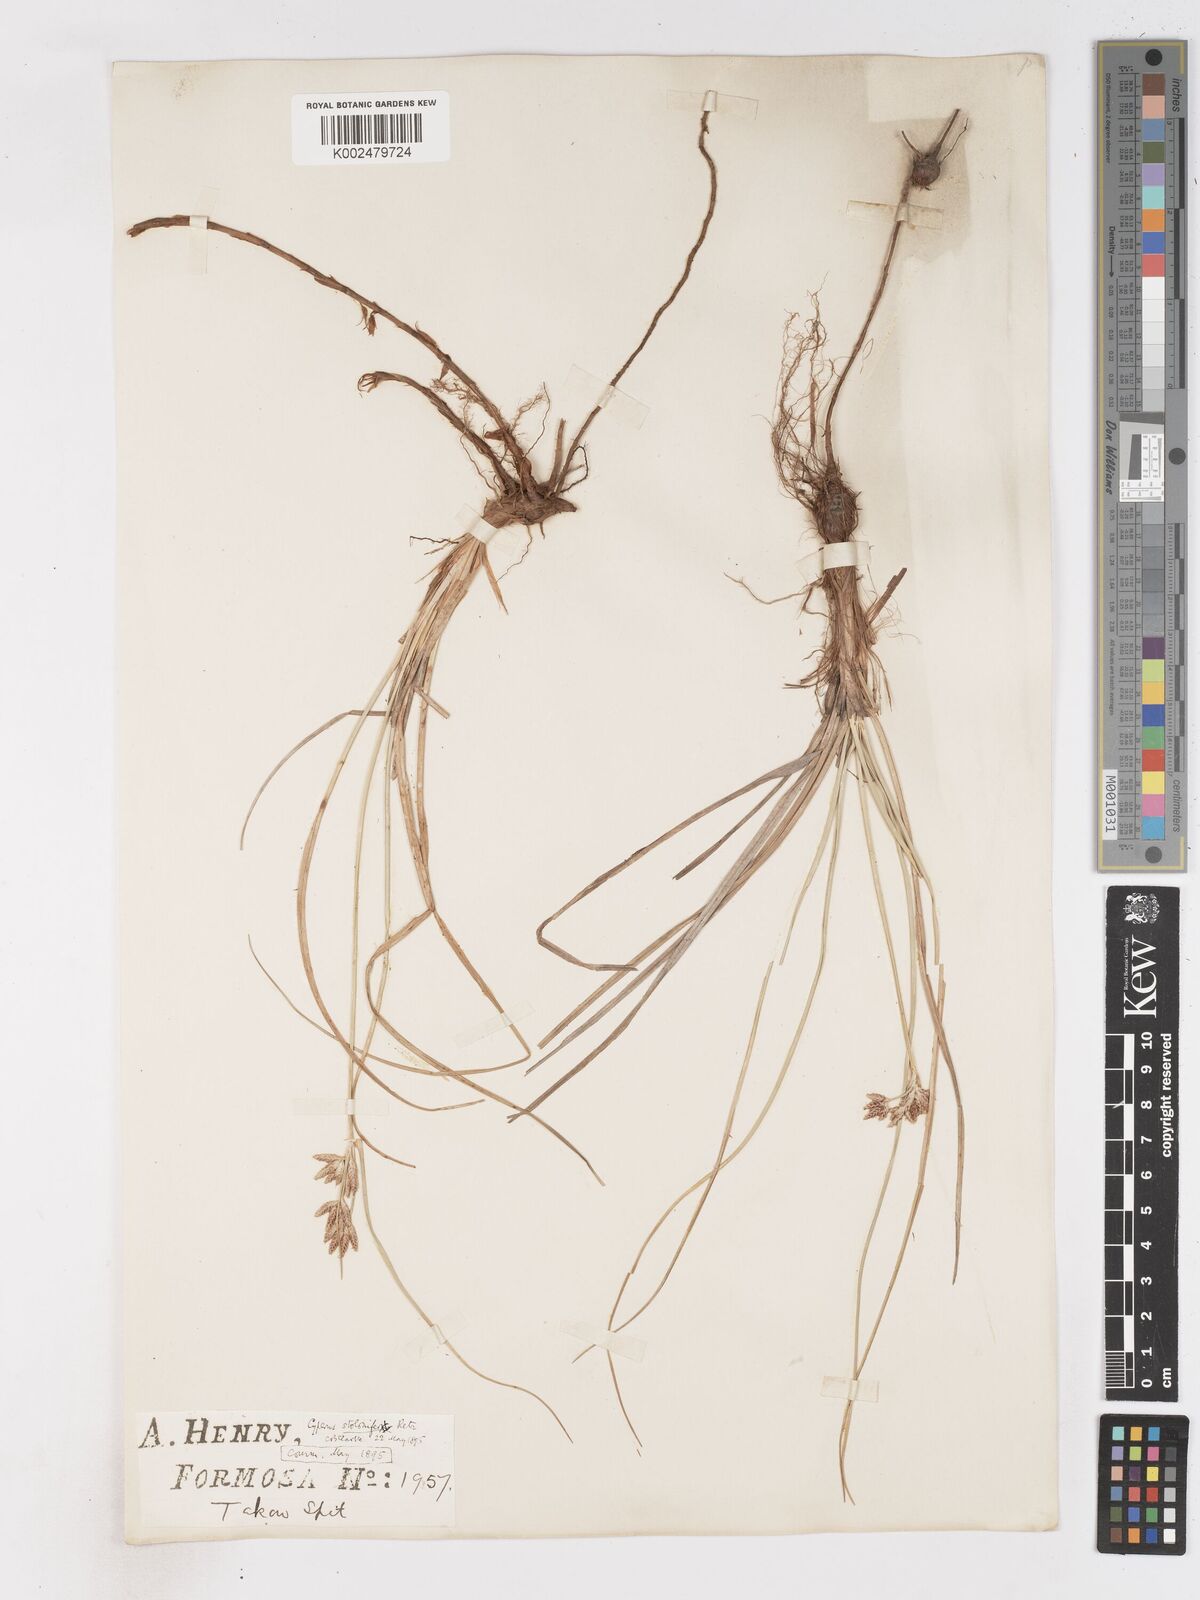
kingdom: Plantae
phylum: Tracheophyta
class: Liliopsida
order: Poales
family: Cyperaceae
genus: Cyperus
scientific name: Cyperus stolonifer
